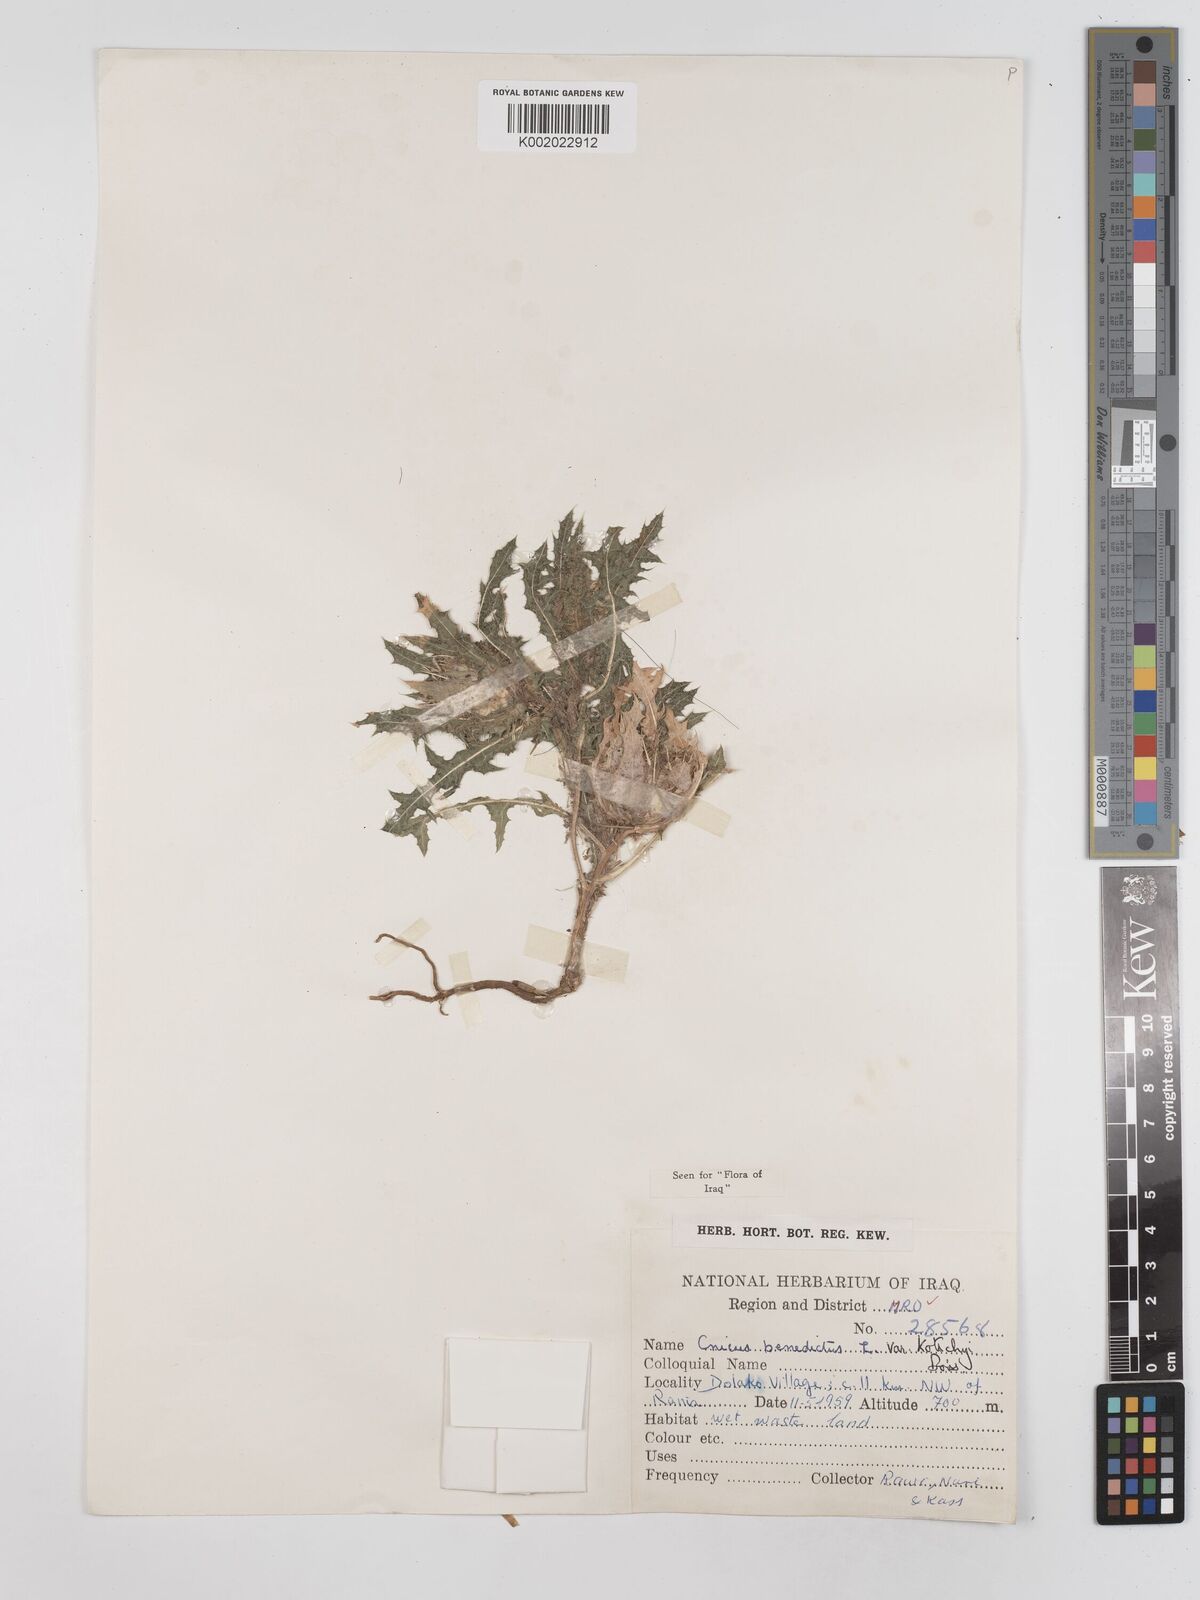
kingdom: Plantae
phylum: Tracheophyta
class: Magnoliopsida
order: Asterales
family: Asteraceae
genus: Centaurea
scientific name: Centaurea benedicta
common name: Blessed thistle
